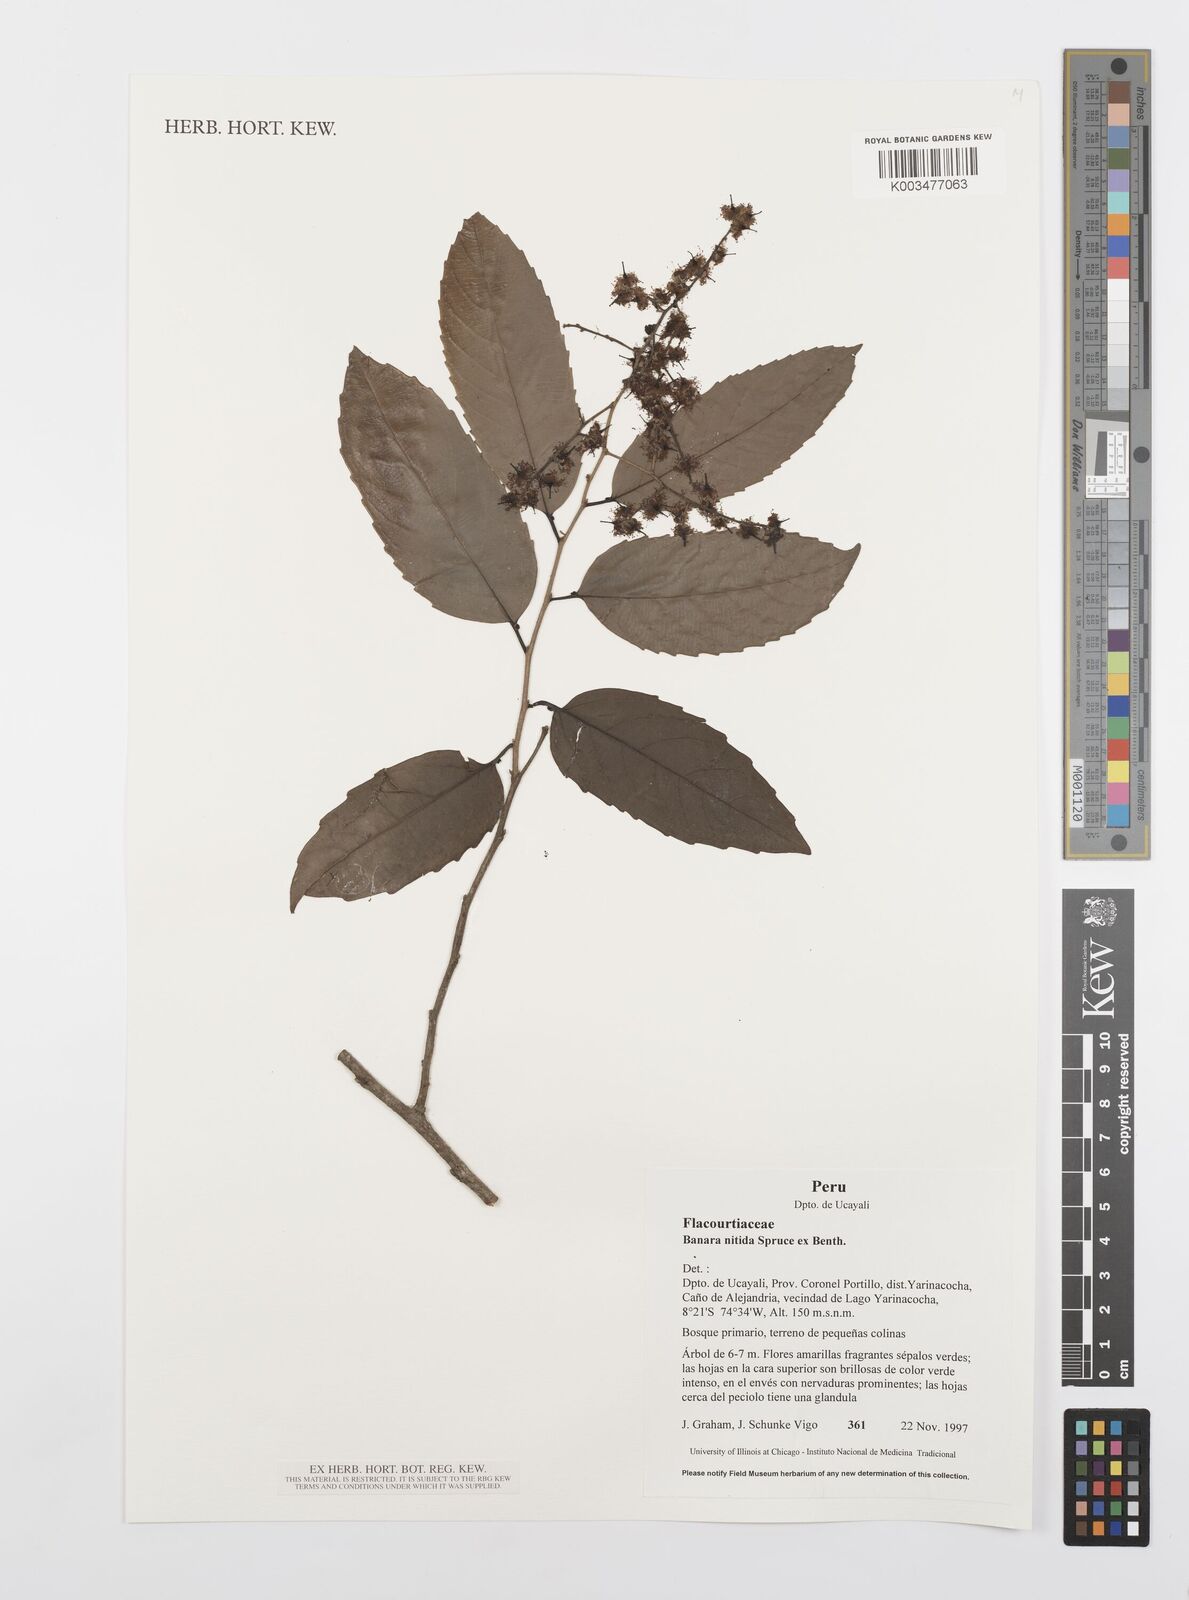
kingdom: Plantae
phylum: Tracheophyta
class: Magnoliopsida
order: Malpighiales
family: Salicaceae
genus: Banara
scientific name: Banara nitida
